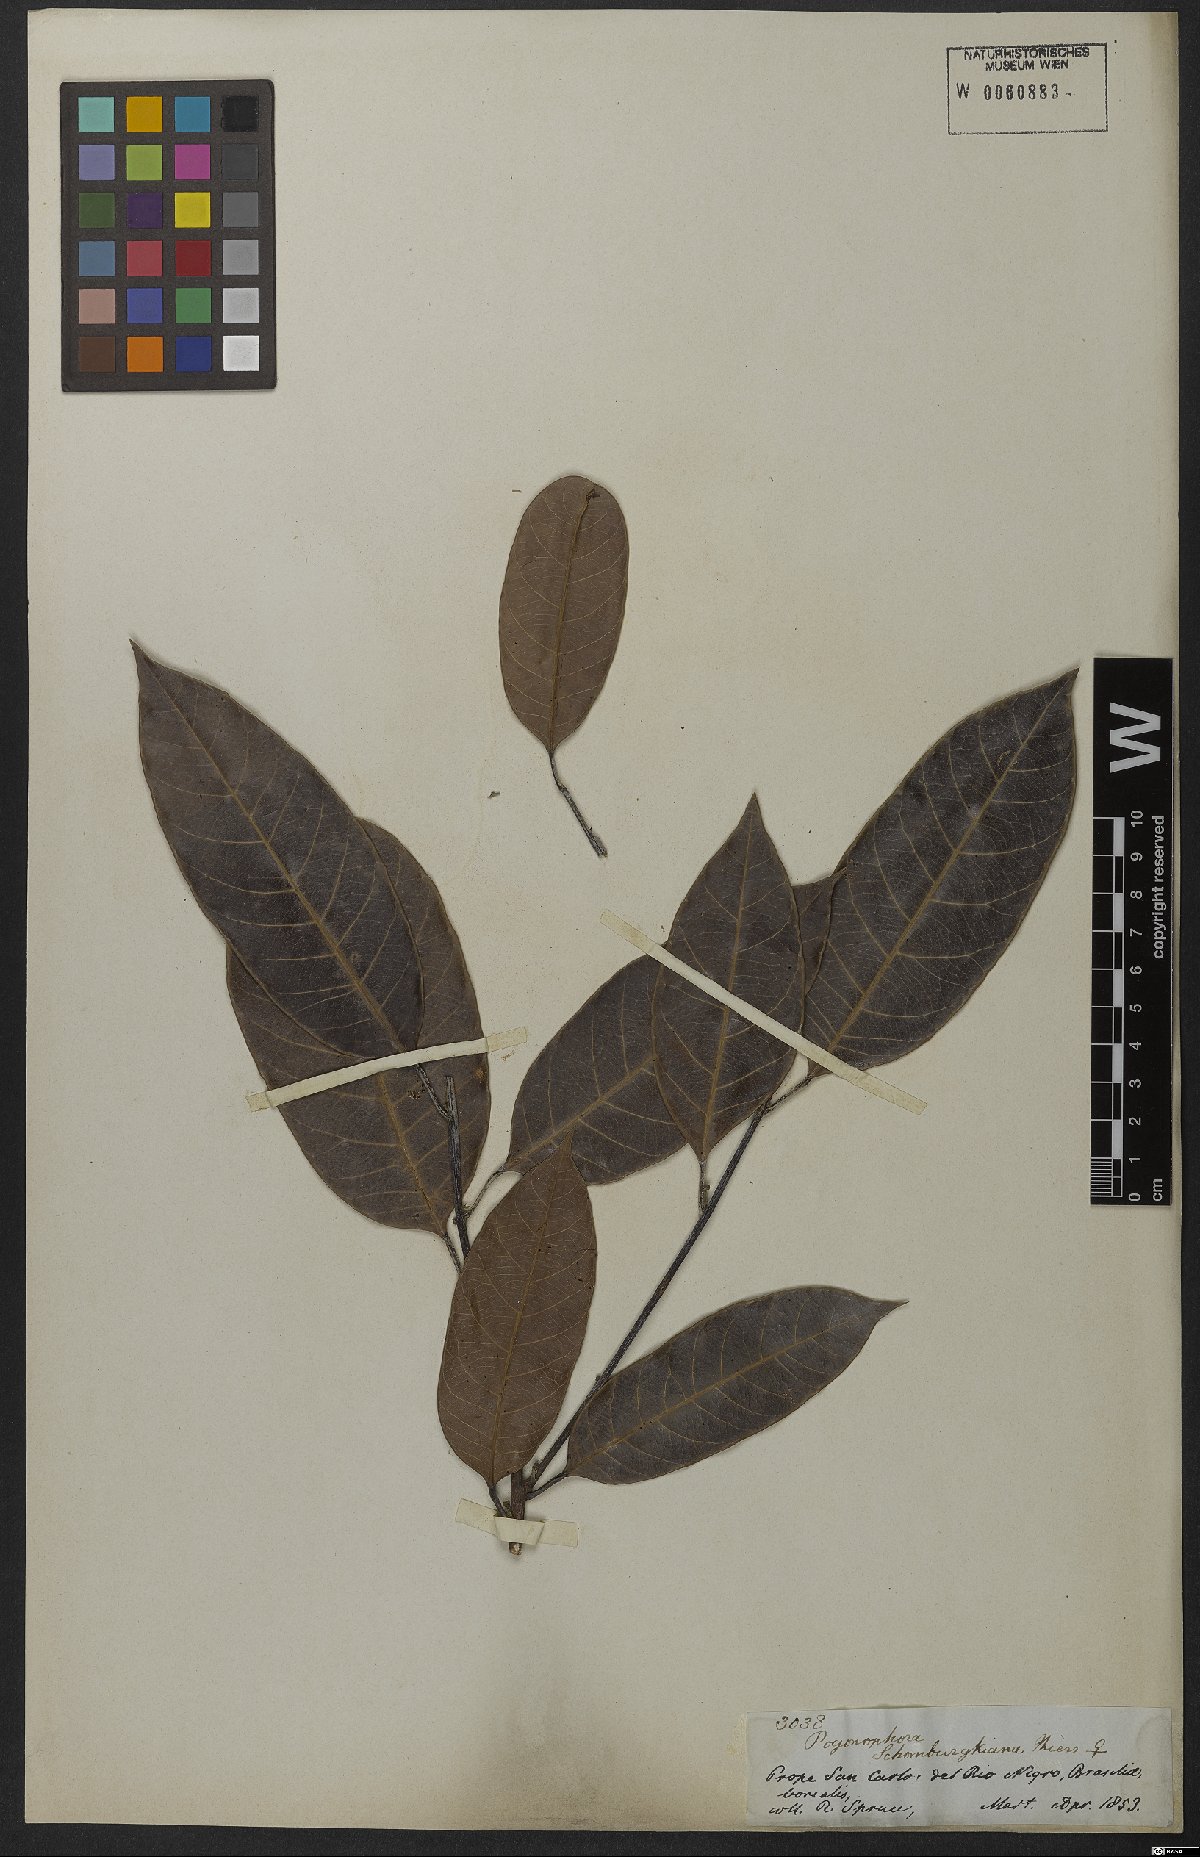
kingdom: Plantae
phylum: Tracheophyta
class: Magnoliopsida
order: Malpighiales
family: Peraceae
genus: Pogonophora
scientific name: Pogonophora schomburgkiana
